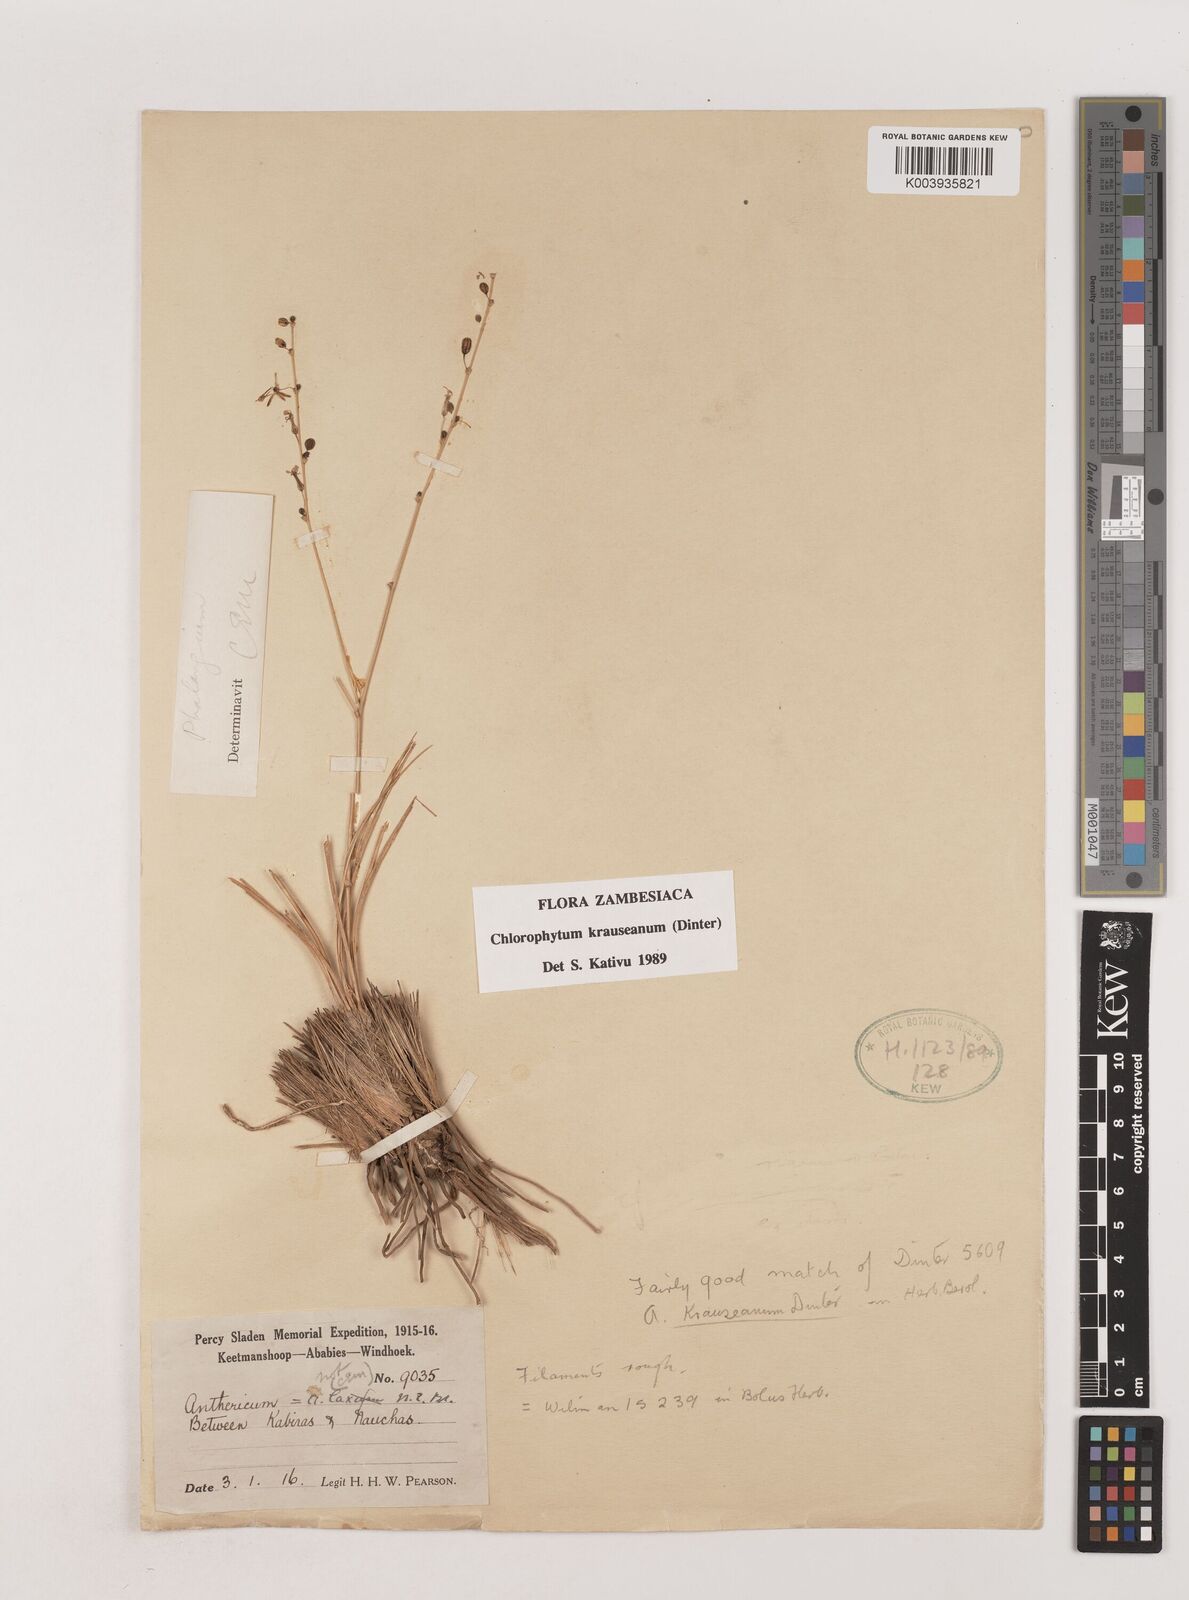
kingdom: Plantae
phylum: Tracheophyta
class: Liliopsida
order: Asparagales
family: Asparagaceae
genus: Chlorophytum
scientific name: Chlorophytum krauseanum
